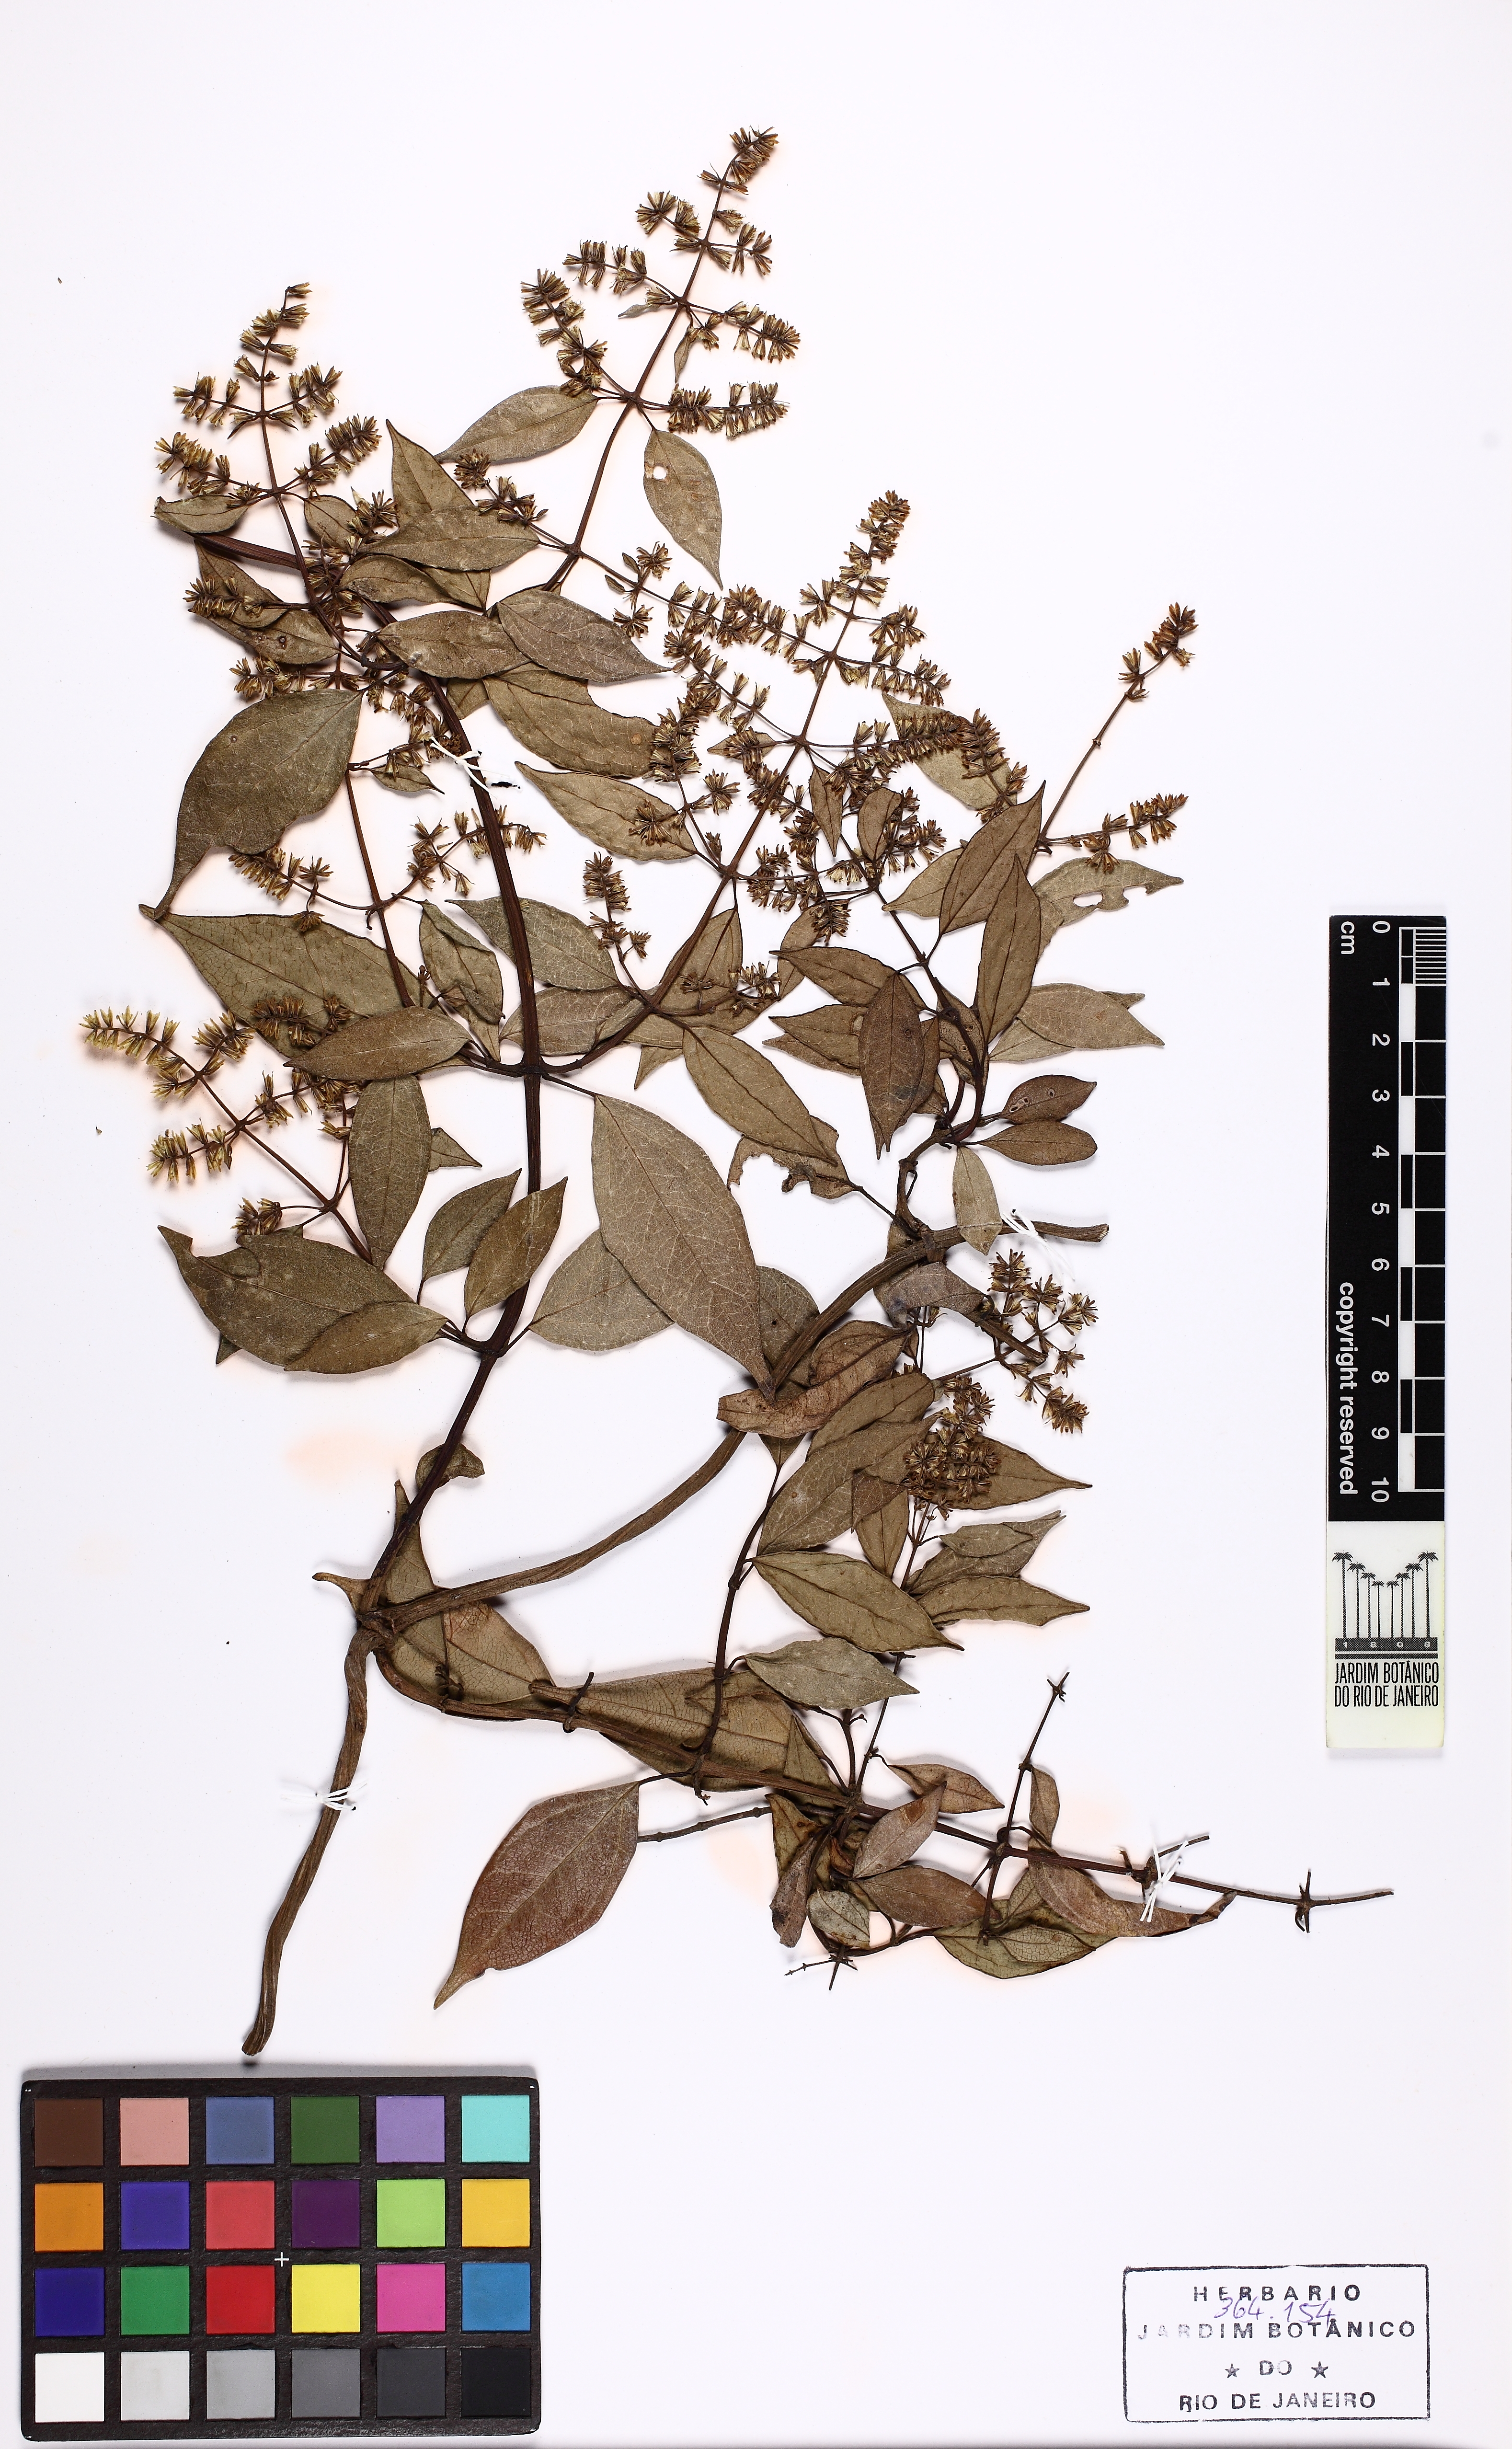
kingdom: Plantae
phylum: Tracheophyta
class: Magnoliopsida
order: Asterales
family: Asteraceae
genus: Mikania
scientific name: Mikania acuminata
